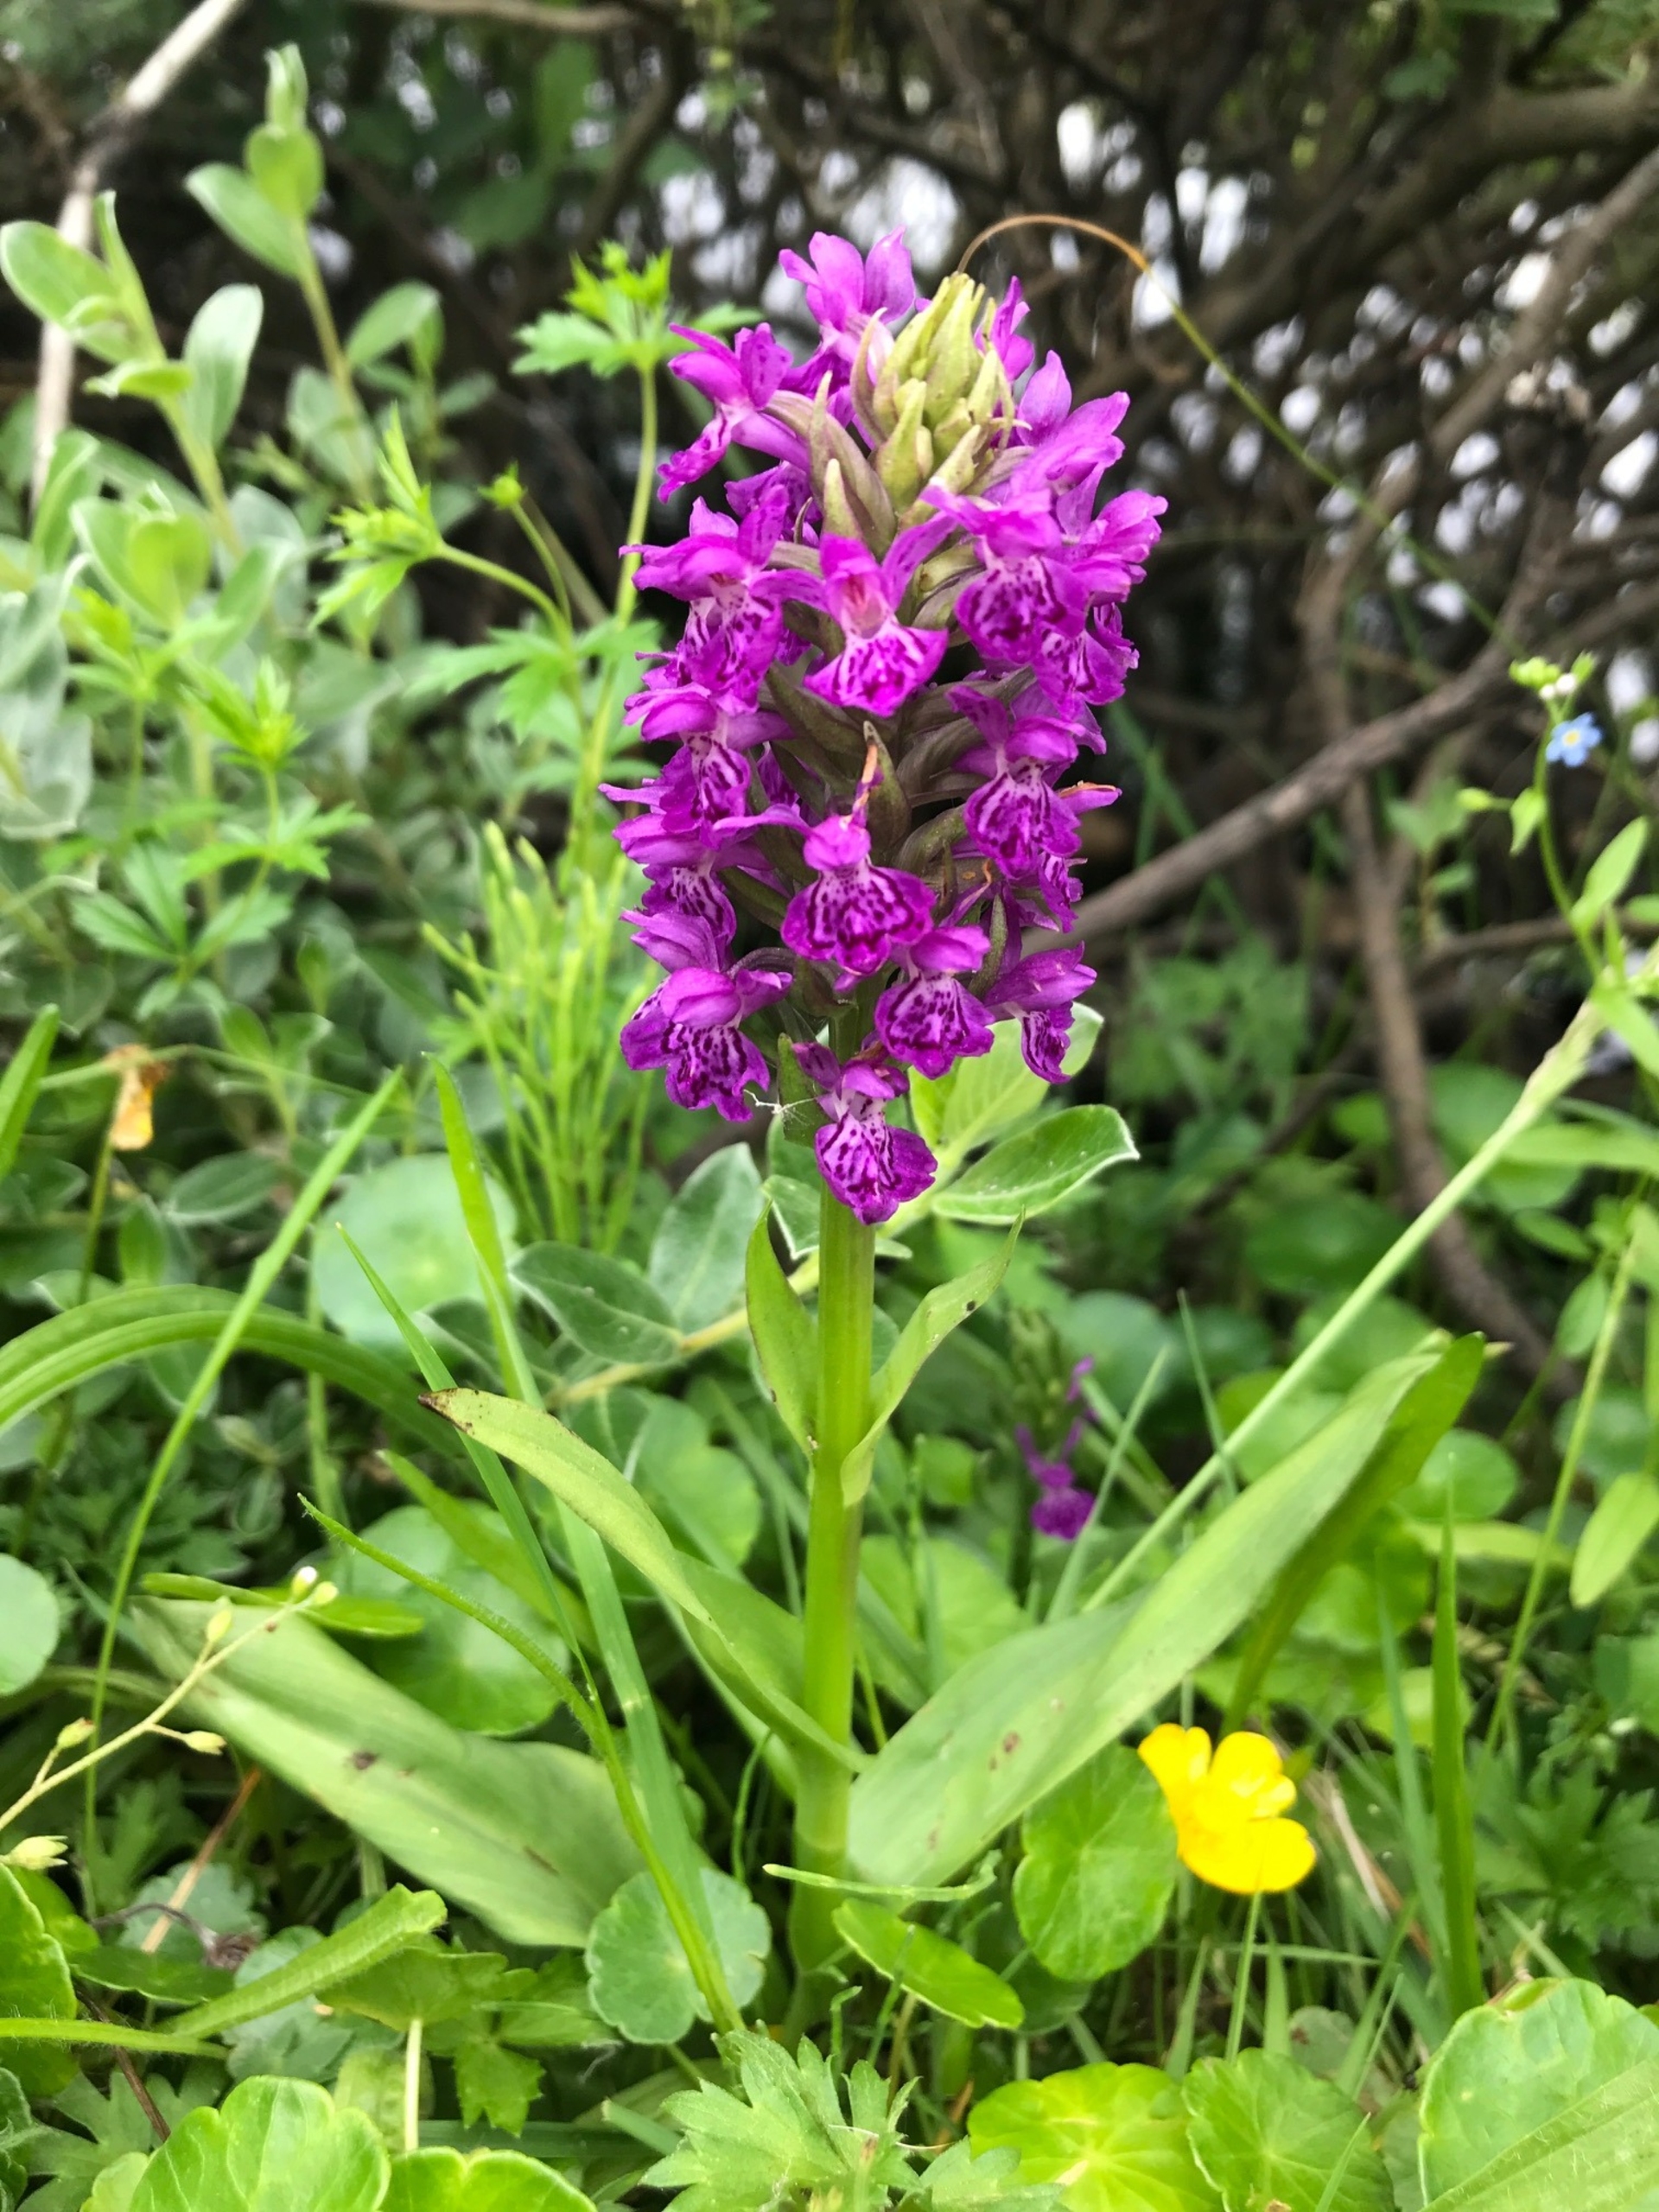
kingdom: Plantae
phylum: Tracheophyta
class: Liliopsida
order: Asparagales
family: Orchidaceae
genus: Dactylorhiza
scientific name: Dactylorhiza majalis
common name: Purpur-gøgeurt
